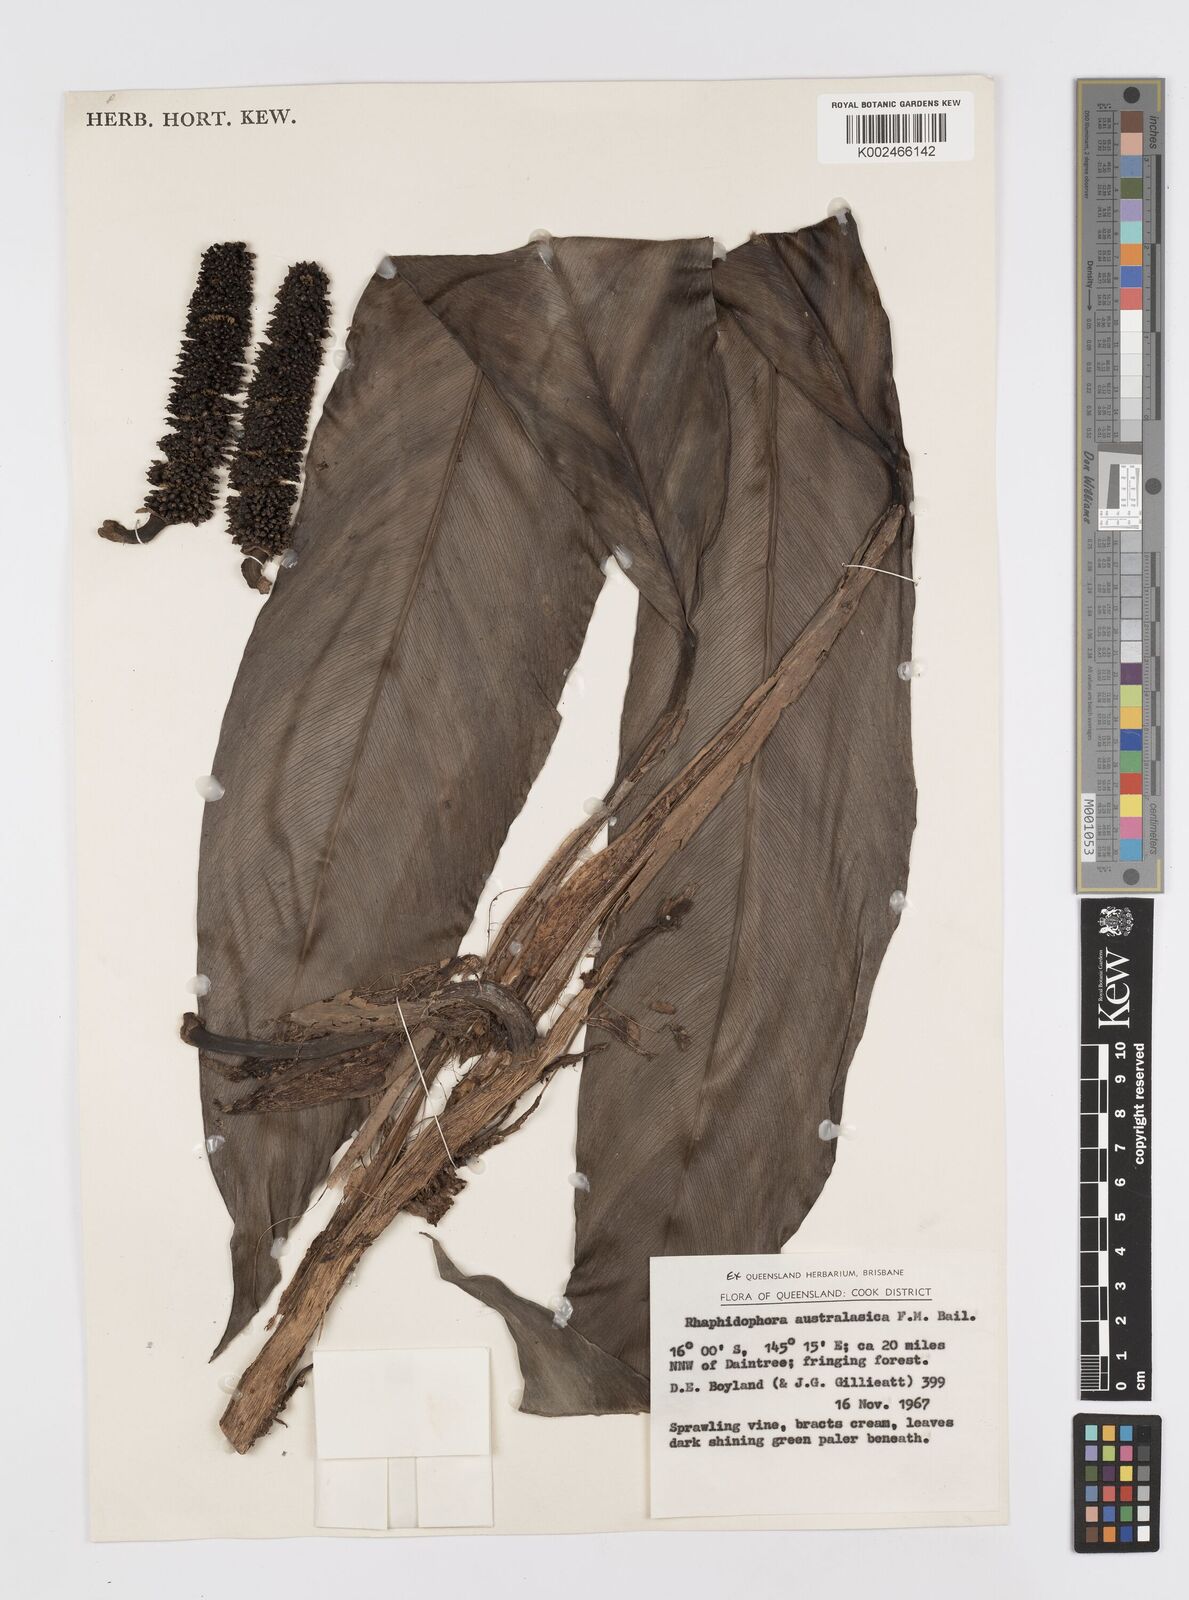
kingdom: Plantae
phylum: Tracheophyta
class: Liliopsida
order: Alismatales
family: Araceae
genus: Rhaphidophora
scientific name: Rhaphidophora australasica
